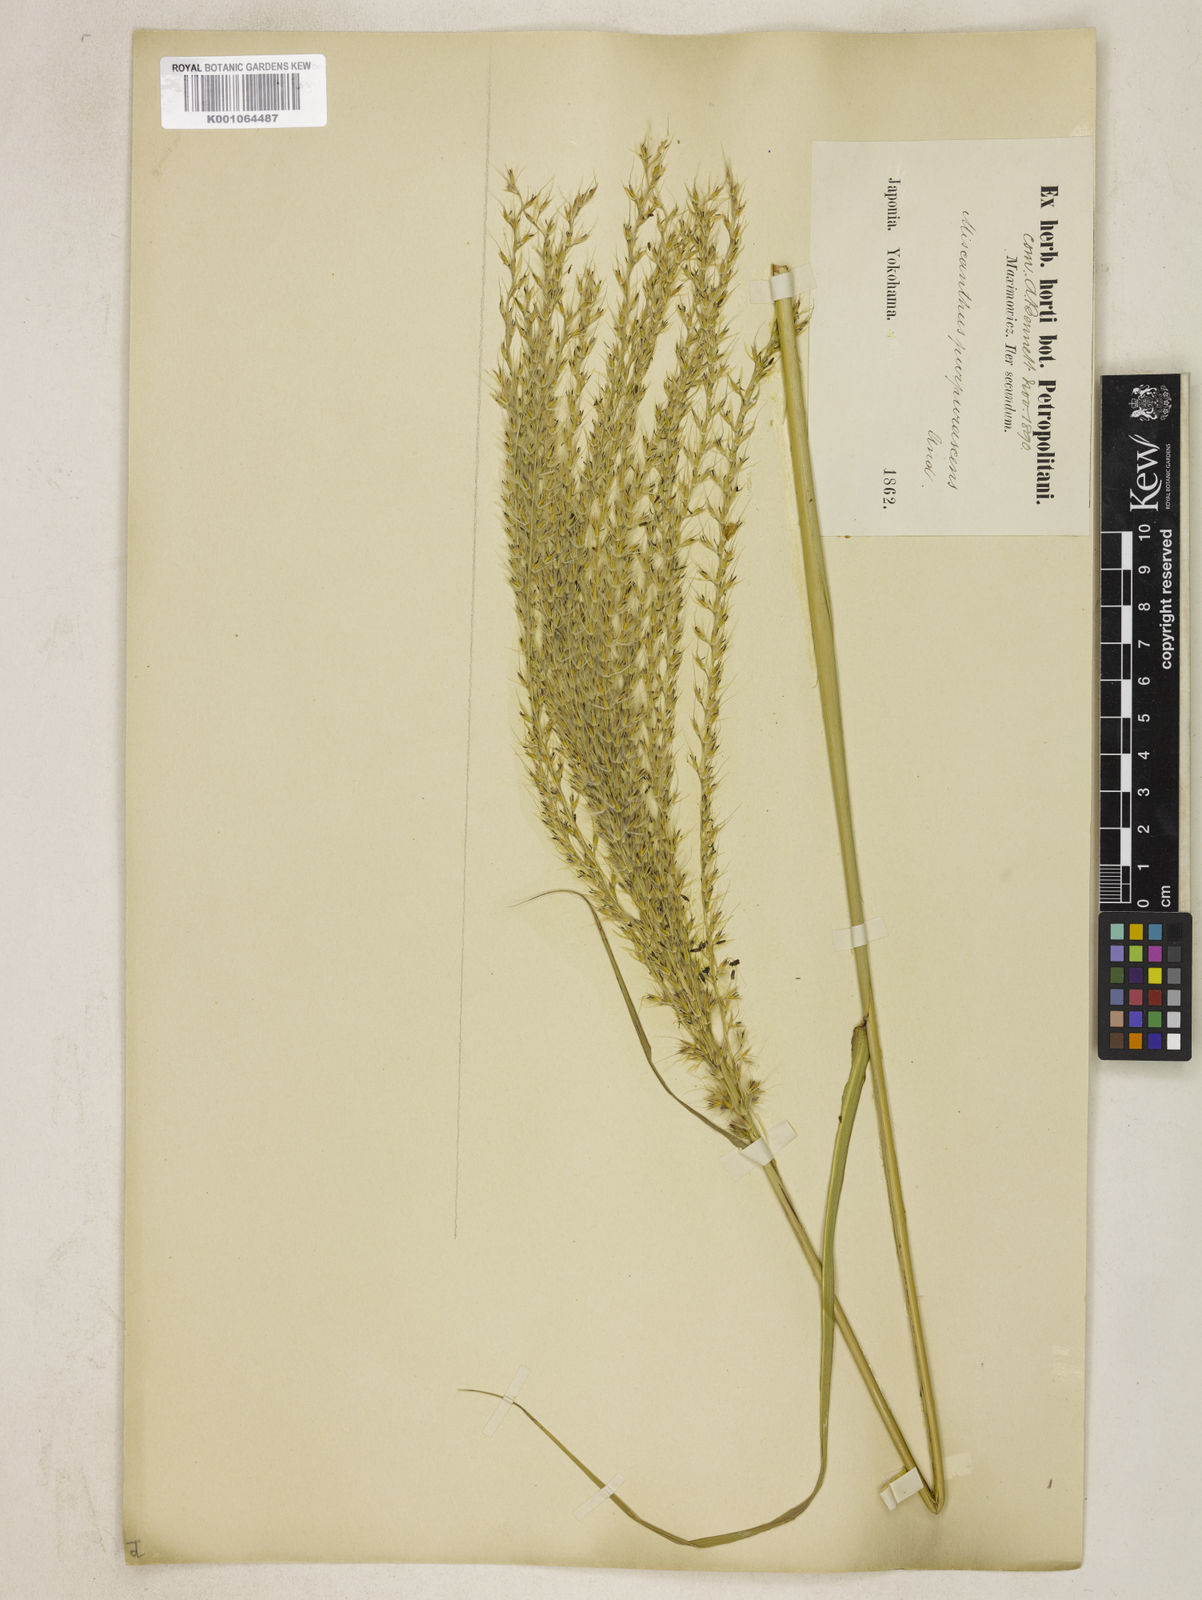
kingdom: Plantae
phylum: Tracheophyta
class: Liliopsida
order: Poales
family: Poaceae
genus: Miscanthus
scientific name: Miscanthus sinensis
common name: Chinese silvergrass
